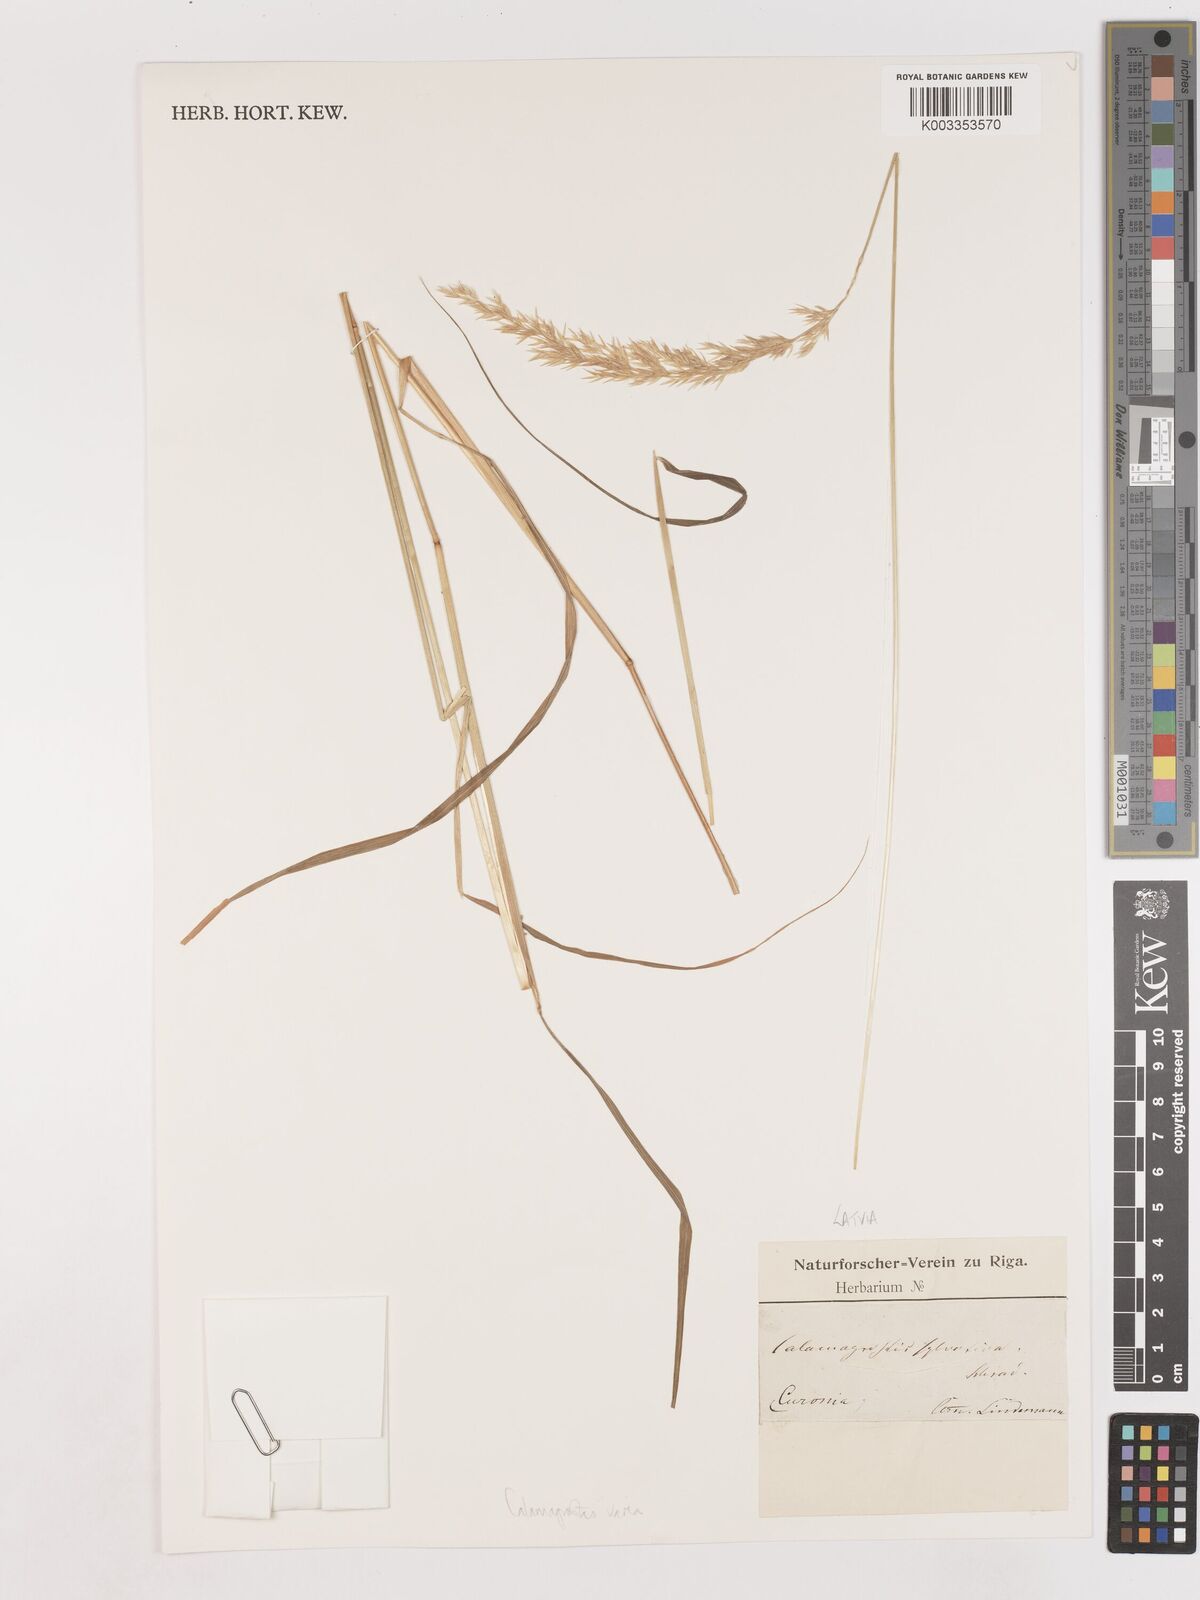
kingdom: Plantae
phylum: Tracheophyta
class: Liliopsida
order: Poales
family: Poaceae
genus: Calamagrostis
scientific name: Calamagrostis varia
